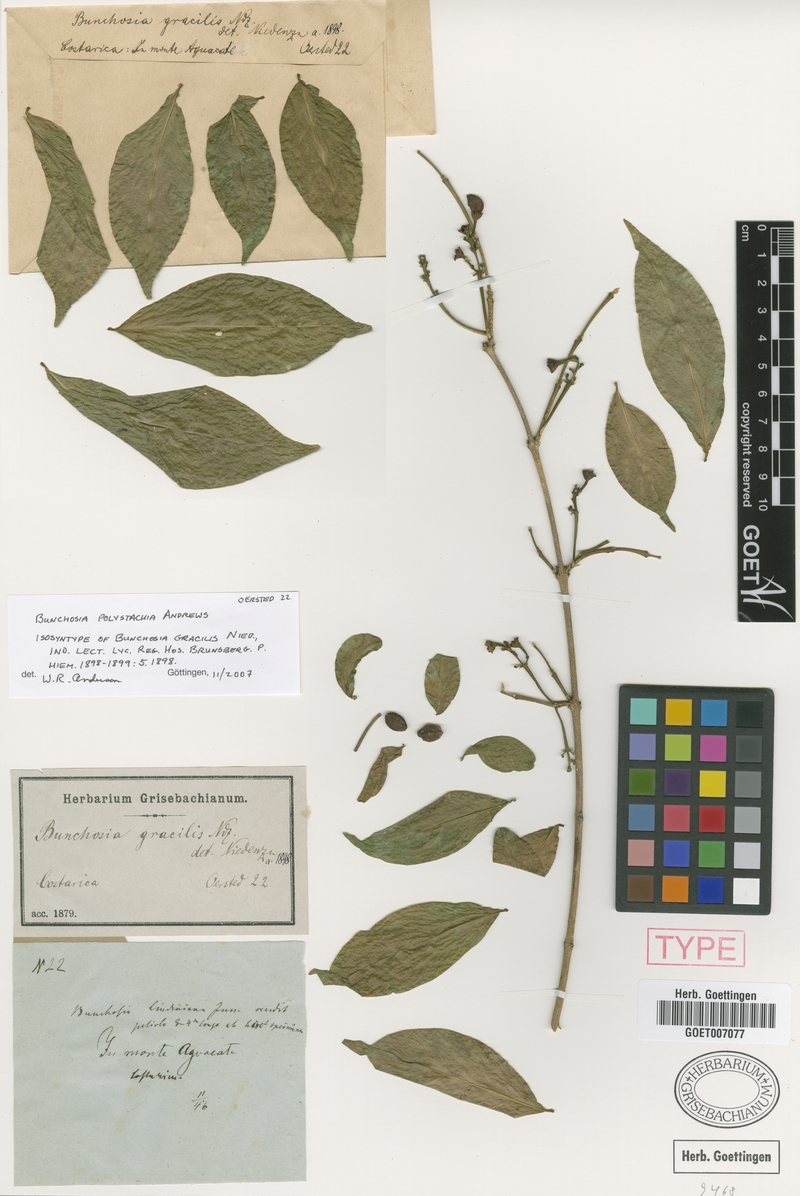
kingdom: Plantae
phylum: Tracheophyta
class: Magnoliopsida
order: Malpighiales
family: Malpighiaceae
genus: Bunchosia
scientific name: Bunchosia polystachya
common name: Woodland coffee
